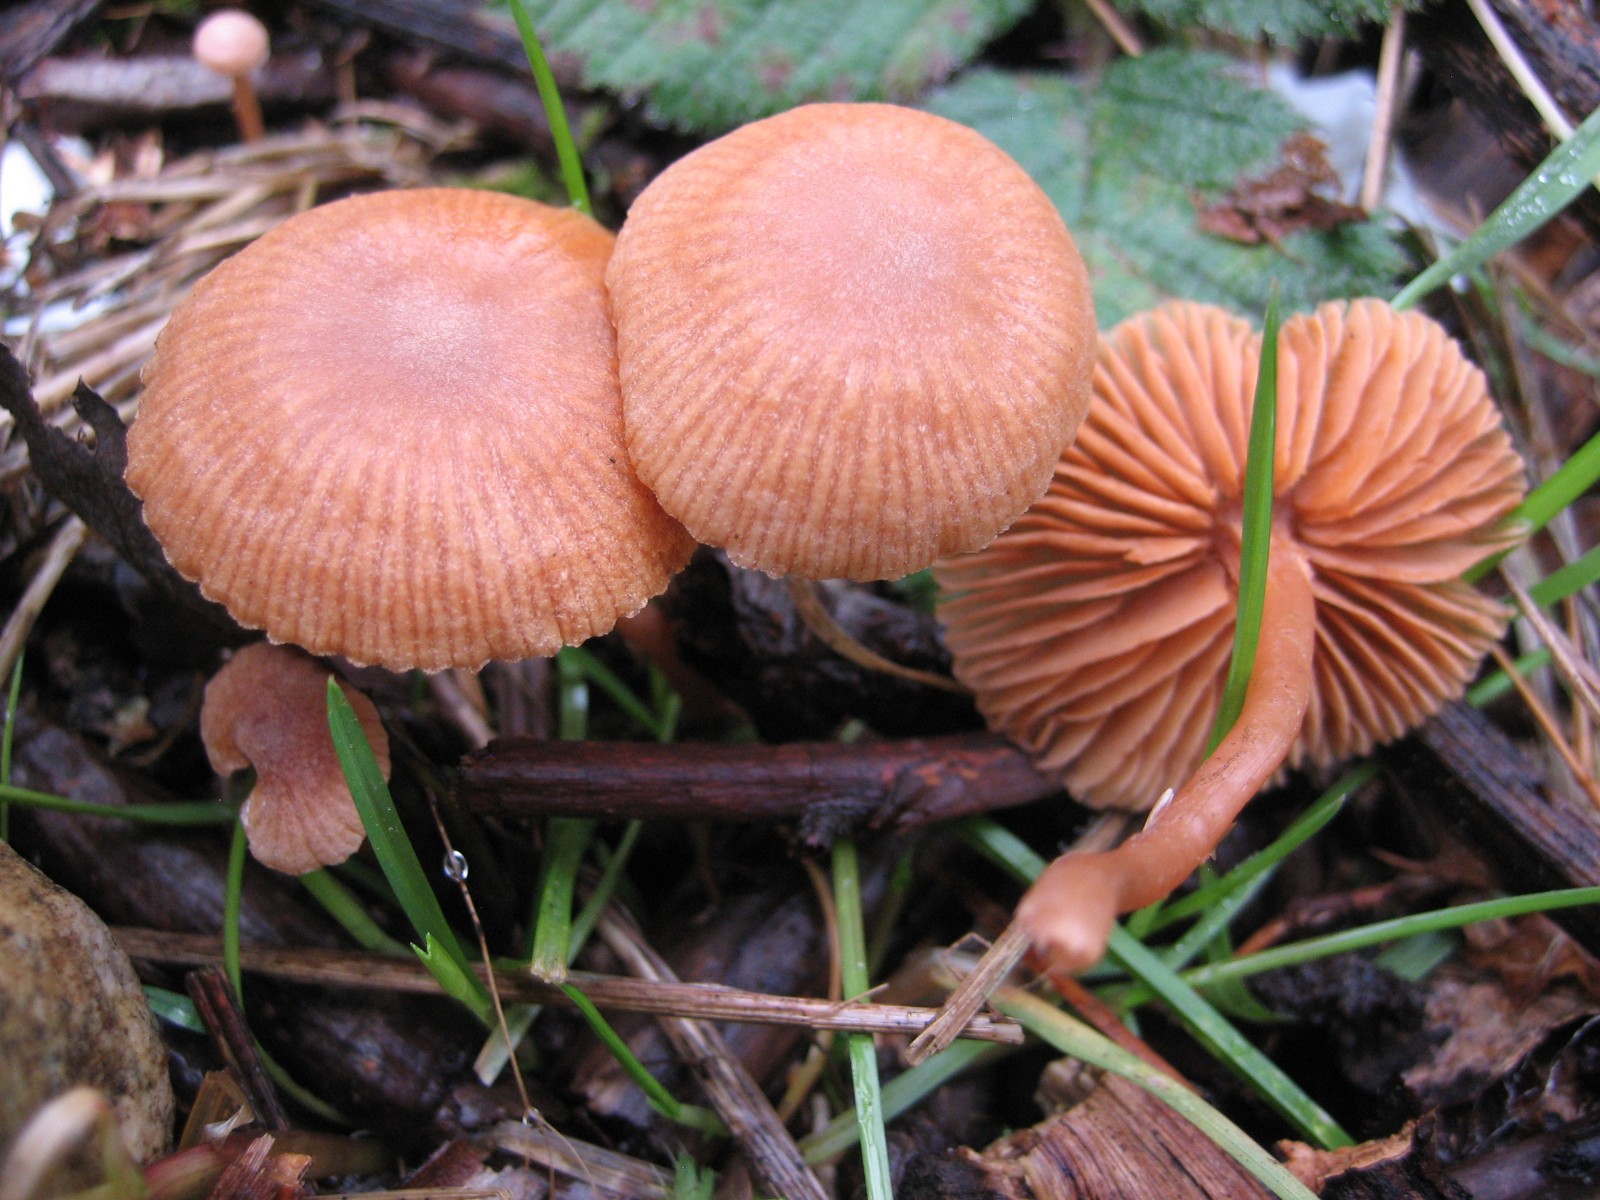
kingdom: Fungi
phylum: Basidiomycota
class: Agaricomycetes
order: Agaricales
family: Hydnangiaceae
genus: Laccaria
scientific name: Laccaria laccata
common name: rød ametysthat
